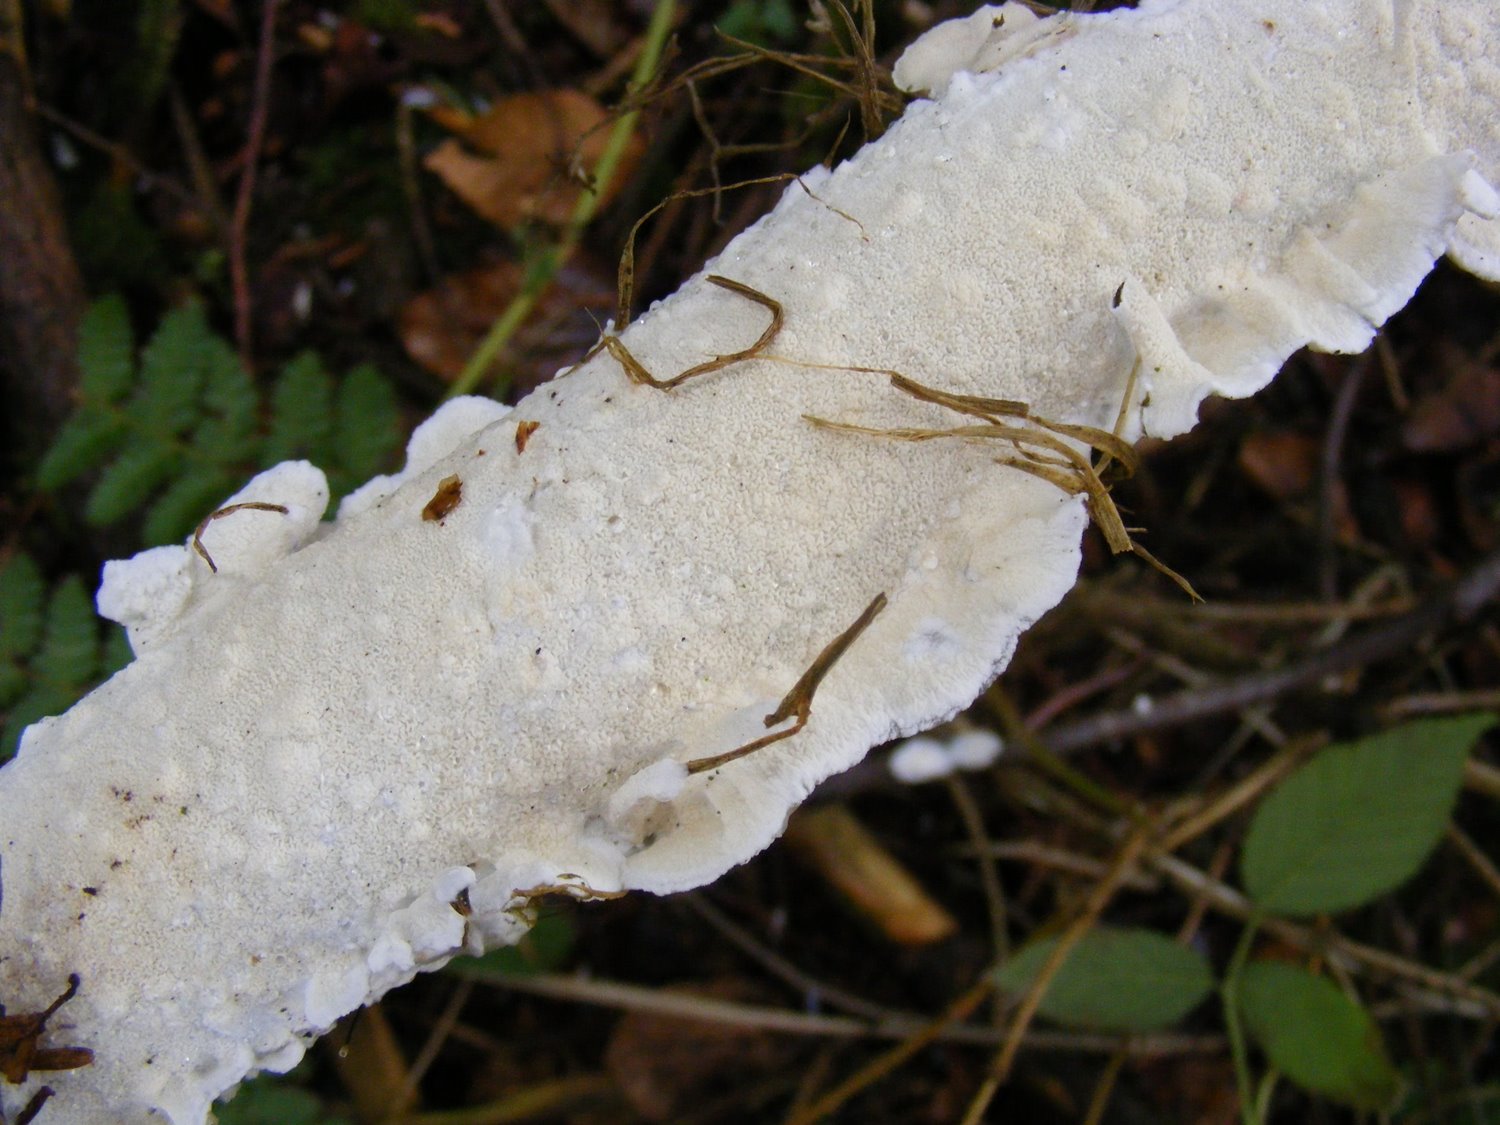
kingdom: Fungi
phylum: Basidiomycota
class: Agaricomycetes
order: Polyporales
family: Irpicaceae
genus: Byssomerulius
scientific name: Byssomerulius corium
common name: læder-åresvamp
